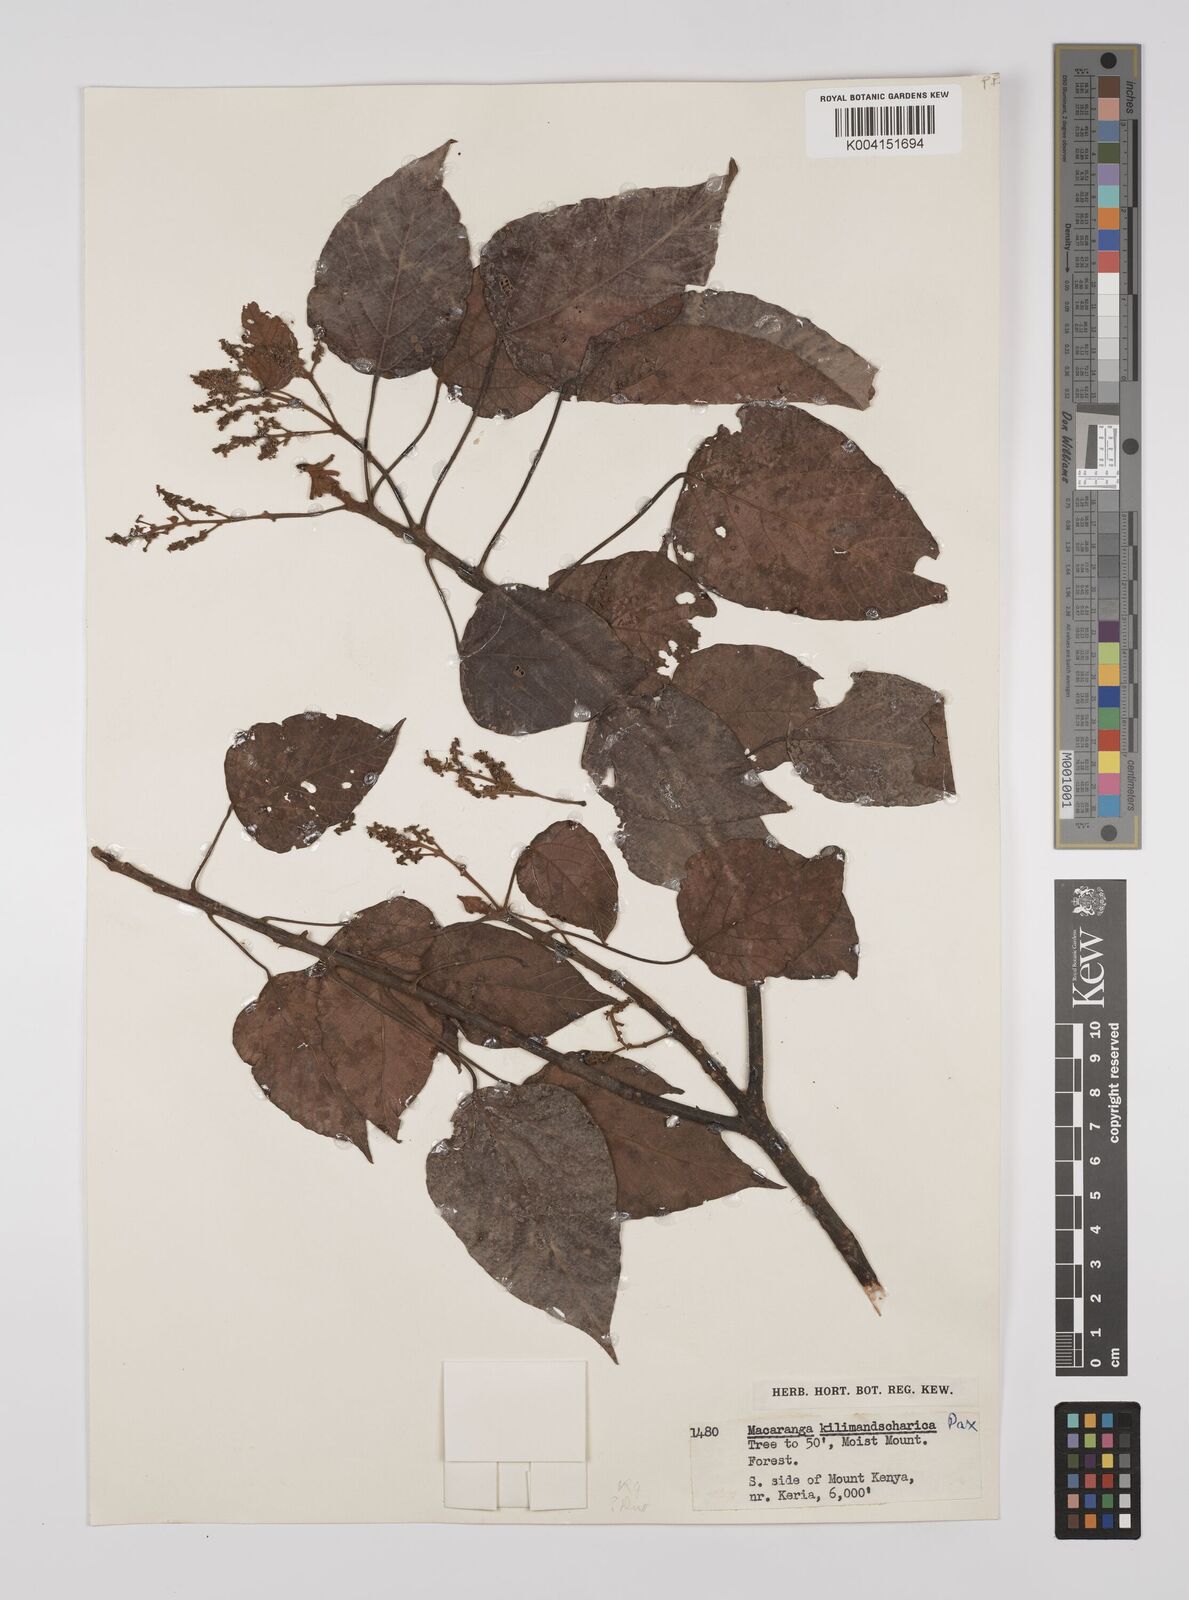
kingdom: Plantae
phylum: Tracheophyta
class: Magnoliopsida
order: Malpighiales
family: Euphorbiaceae
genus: Macaranga
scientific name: Macaranga kilimandscharica
